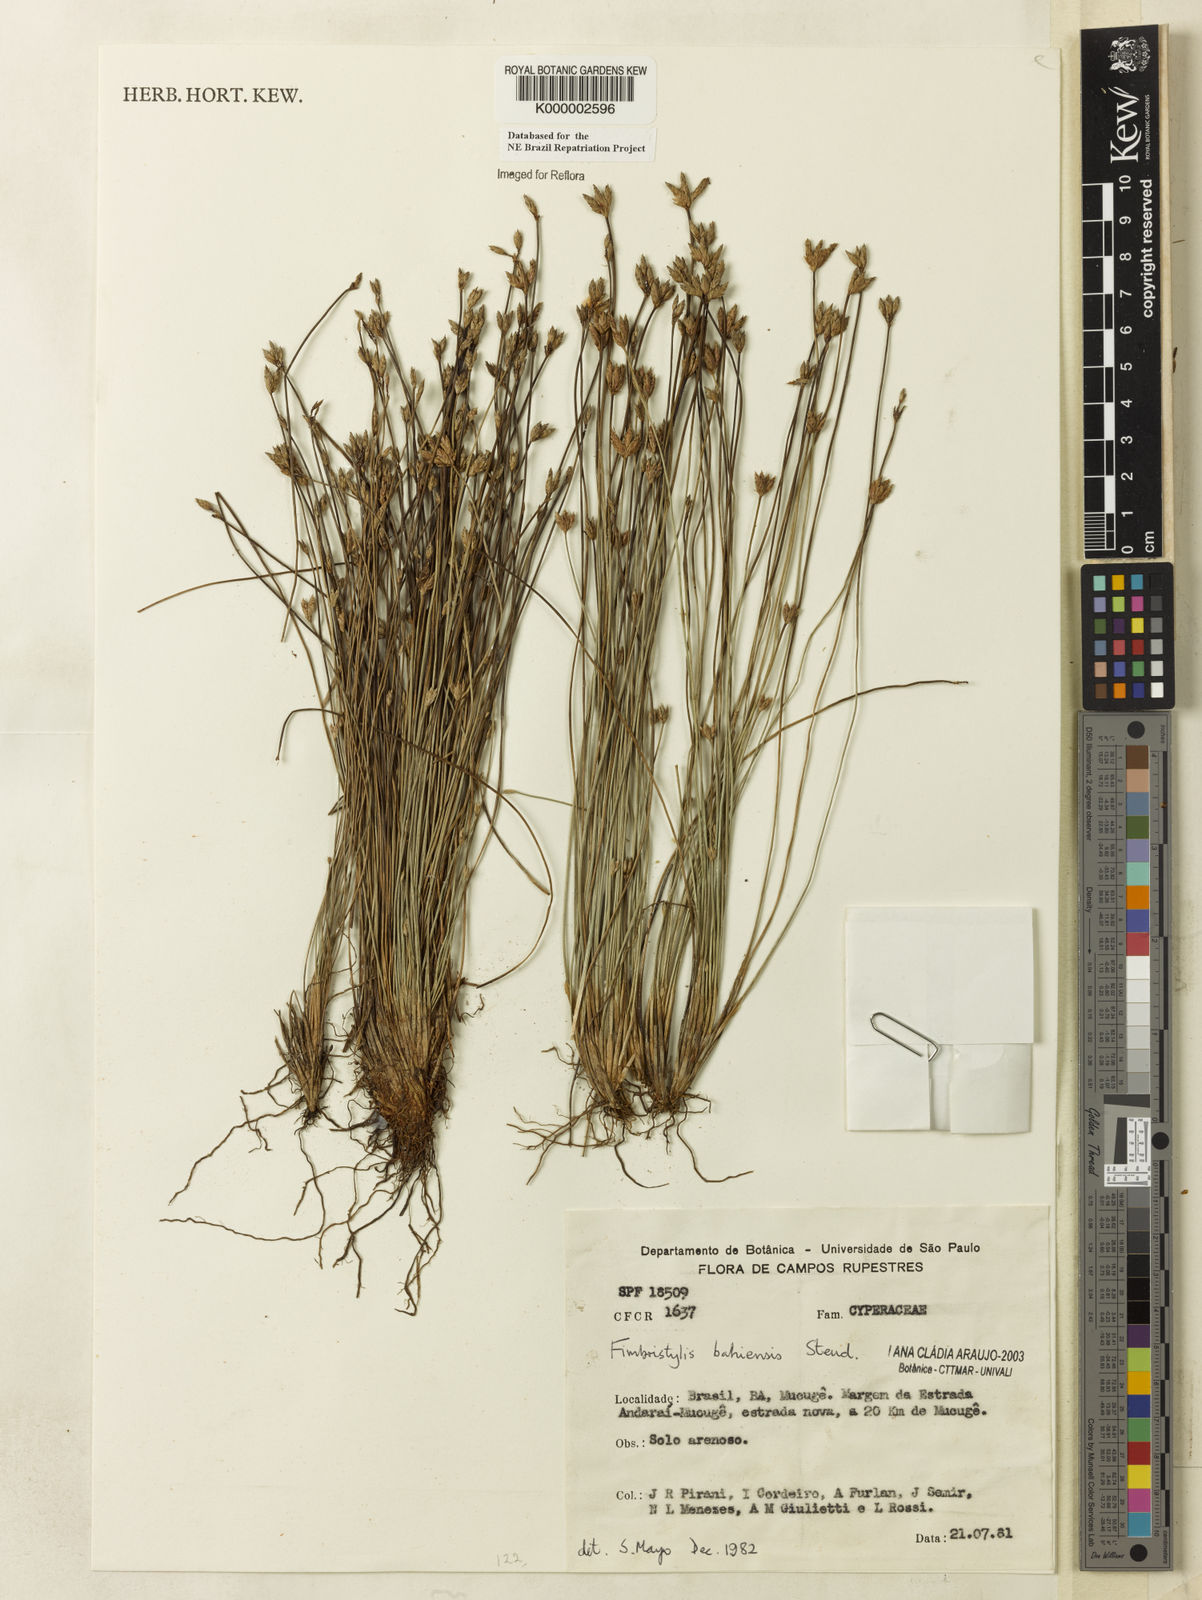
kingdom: Plantae
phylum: Tracheophyta
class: Liliopsida
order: Poales
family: Cyperaceae
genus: Fimbristylis
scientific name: Fimbristylis bahiensis
